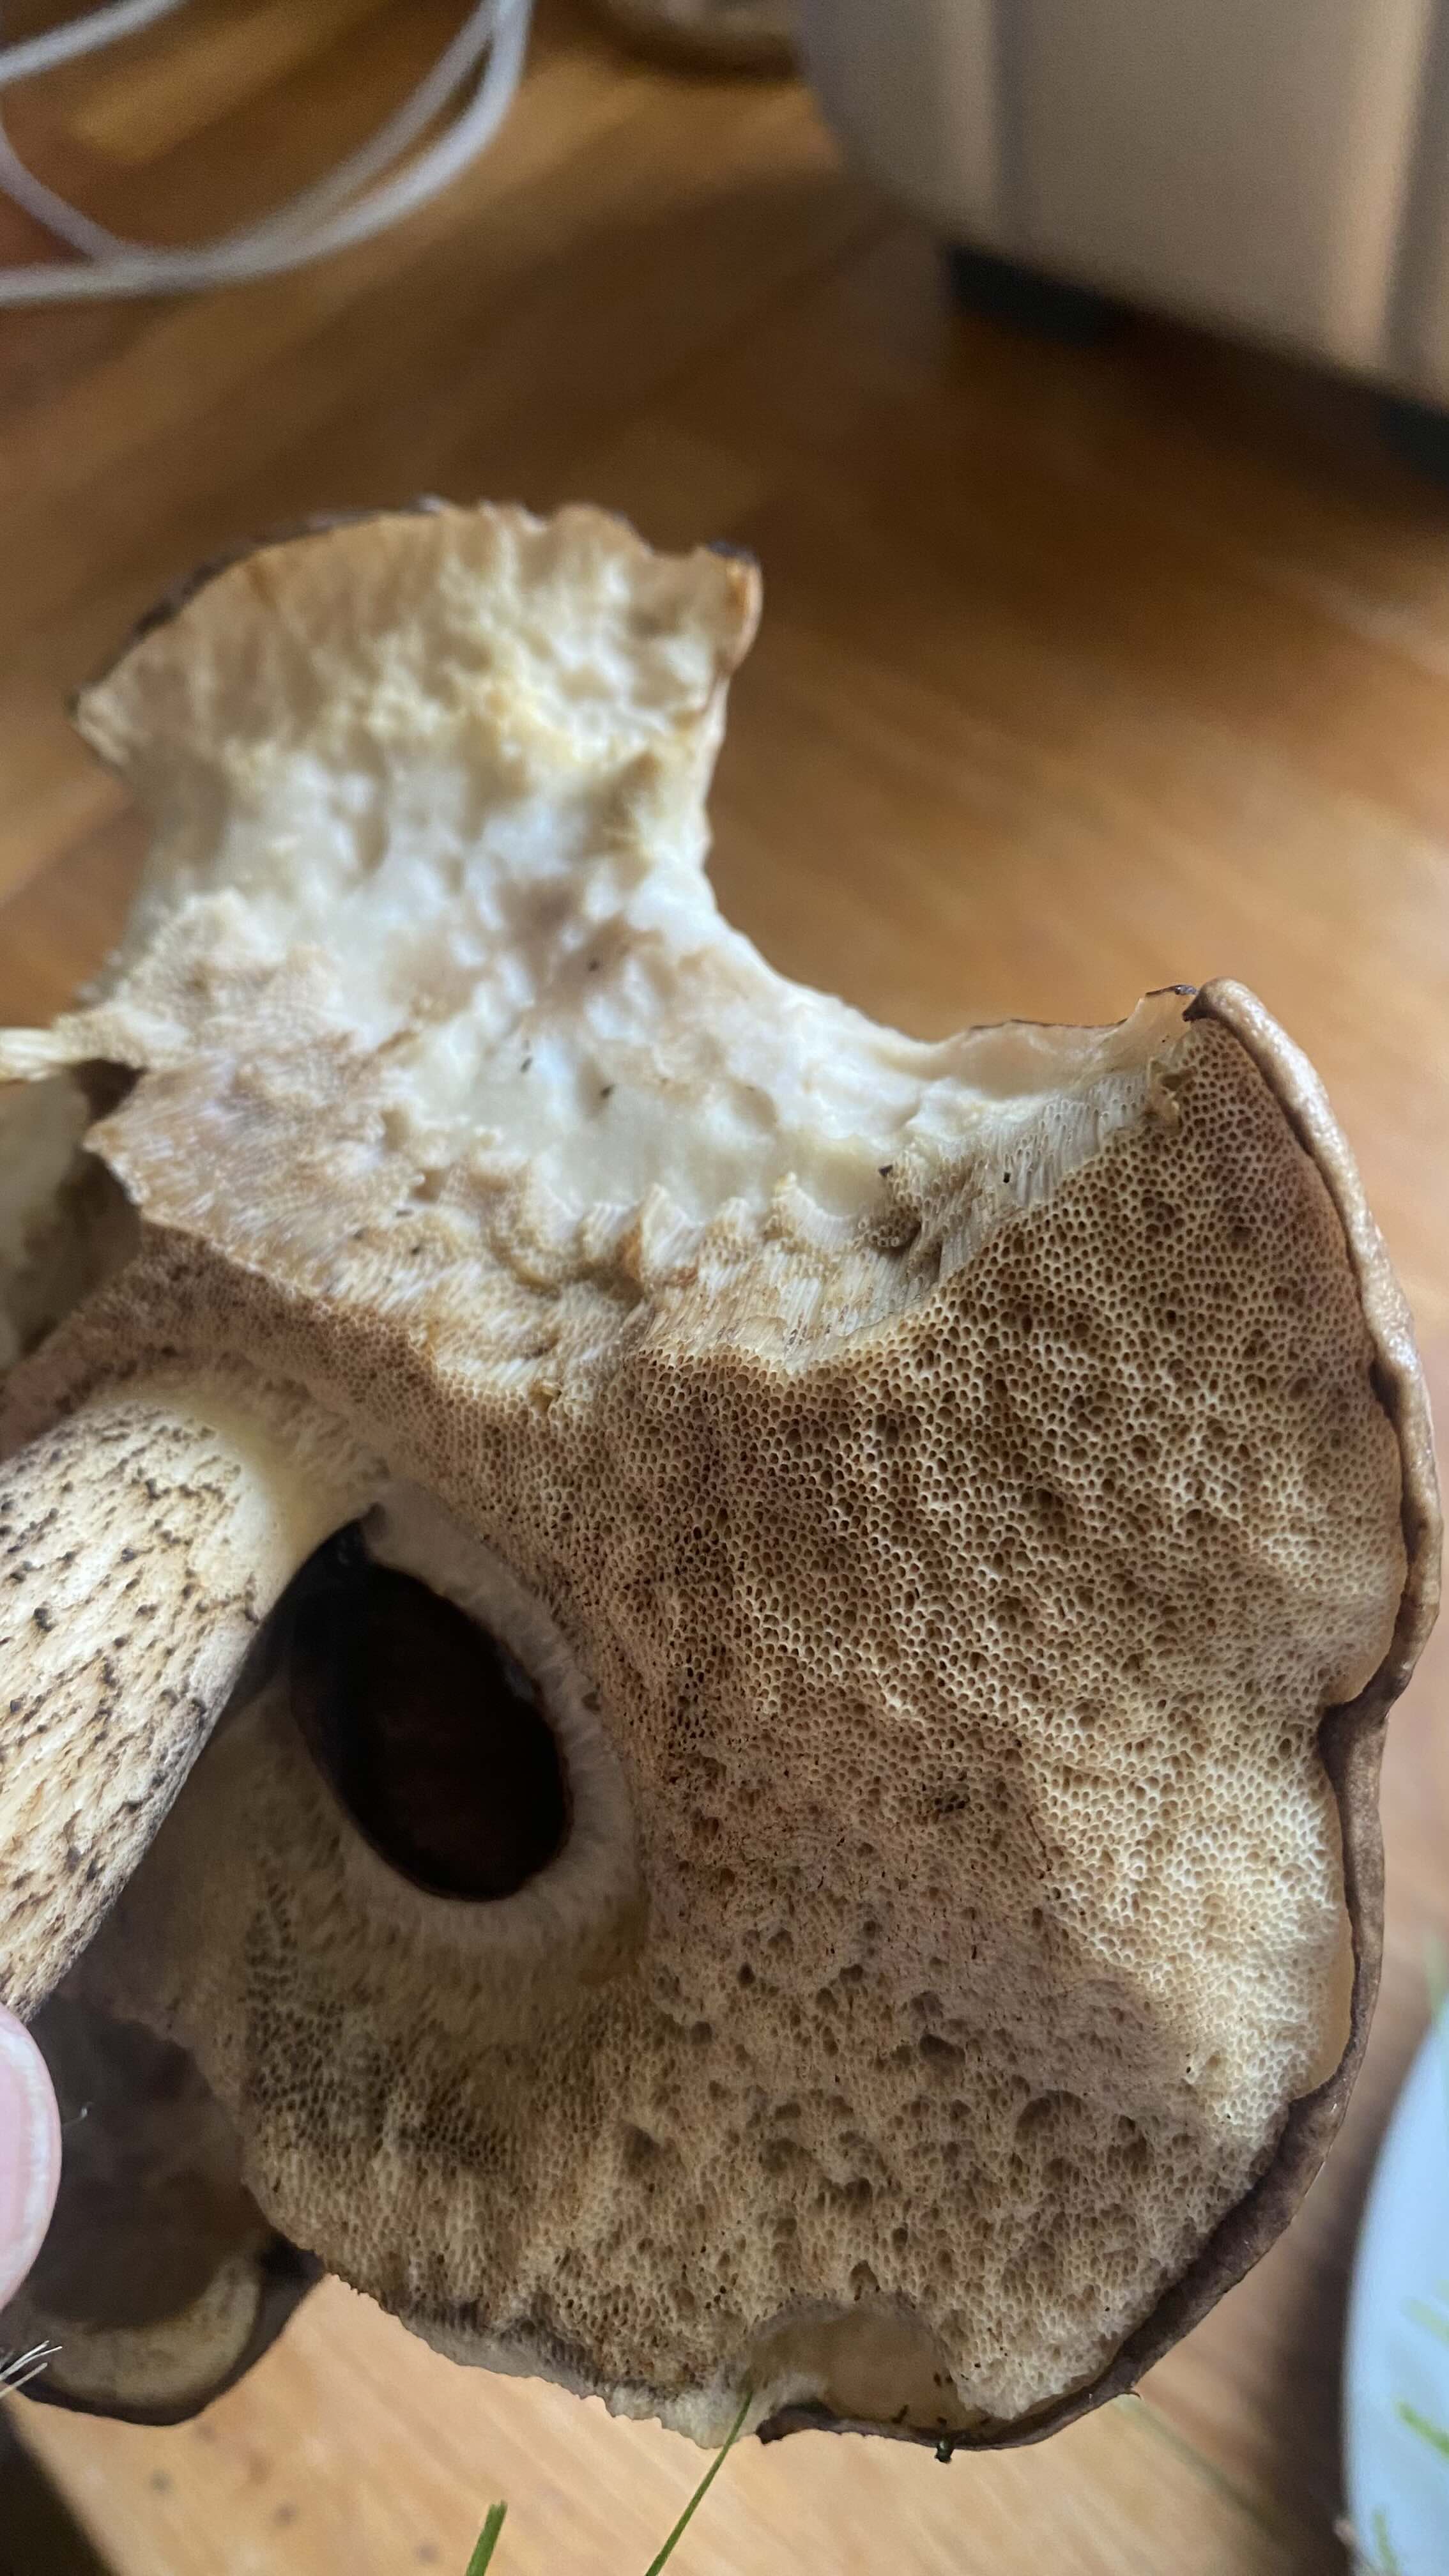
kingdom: Fungi
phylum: Basidiomycota
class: Agaricomycetes
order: Boletales
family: Boletaceae
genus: Leccinum
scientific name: Leccinum
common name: skælrørhat
